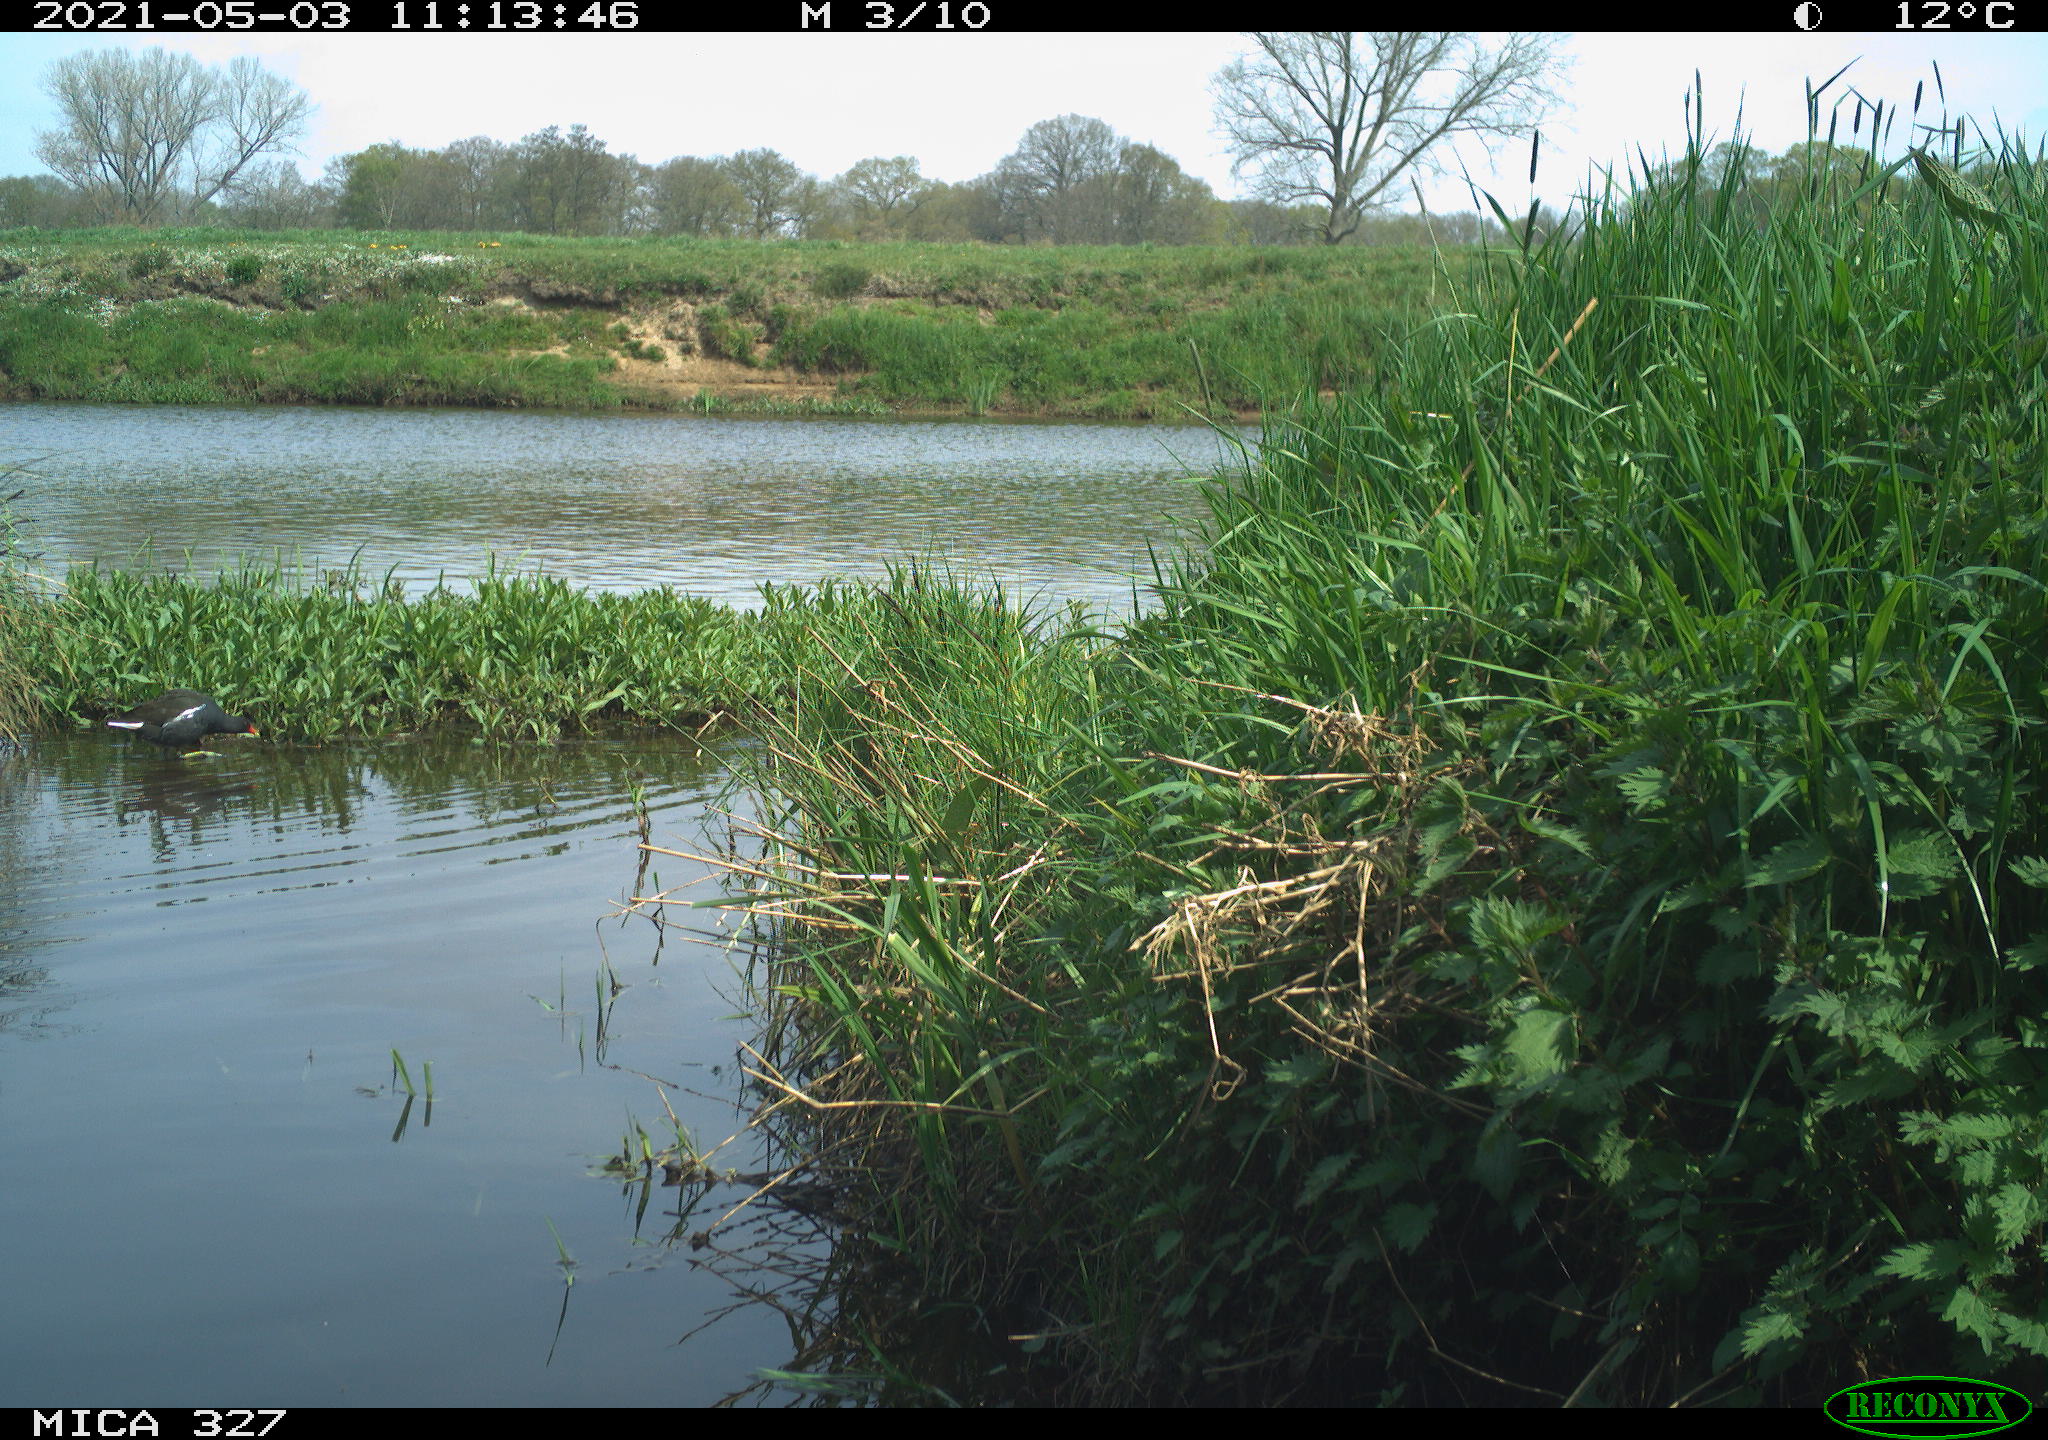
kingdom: Animalia
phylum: Chordata
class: Aves
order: Gruiformes
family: Rallidae
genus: Gallinula
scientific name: Gallinula chloropus
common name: Common moorhen
